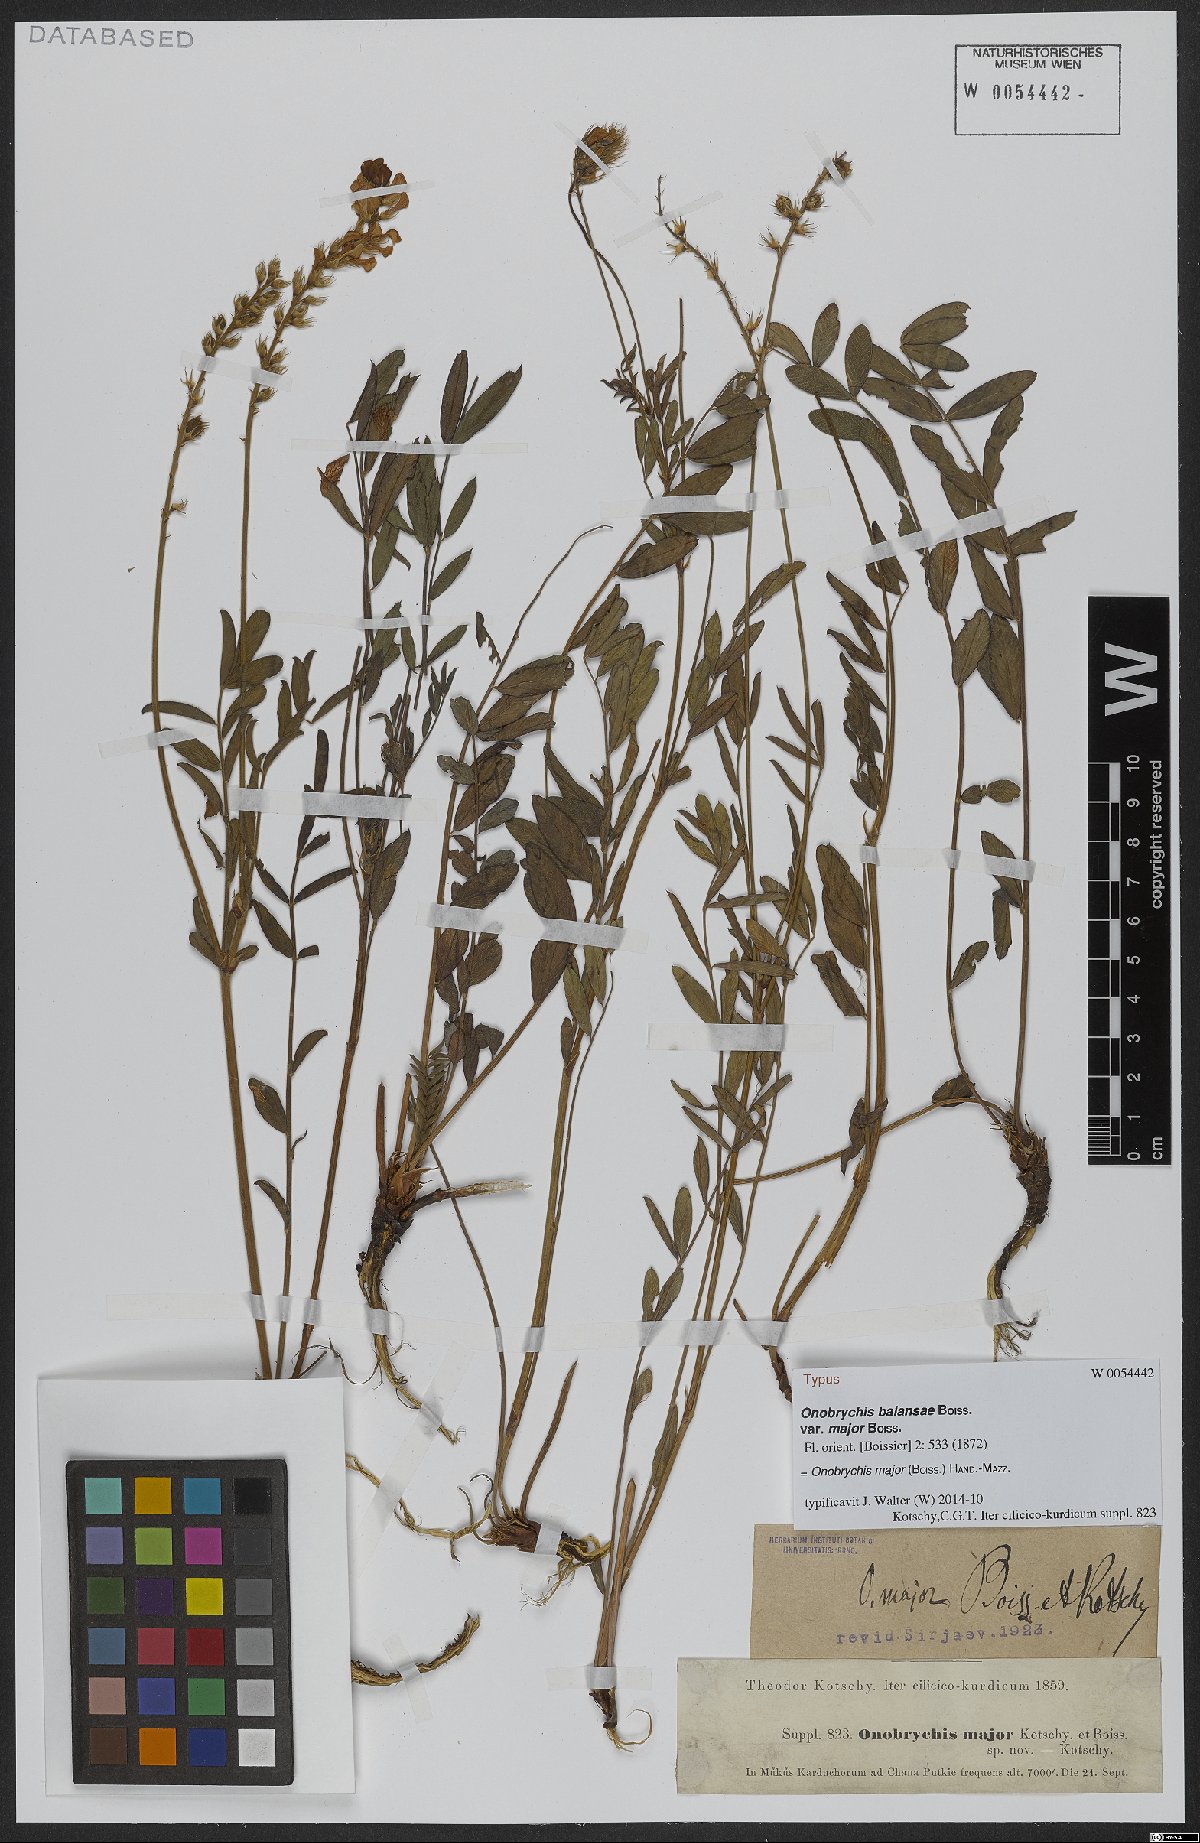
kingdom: Plantae
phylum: Tracheophyta
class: Magnoliopsida
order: Fabales
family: Fabaceae
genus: Onobrychis
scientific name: Onobrychis major
